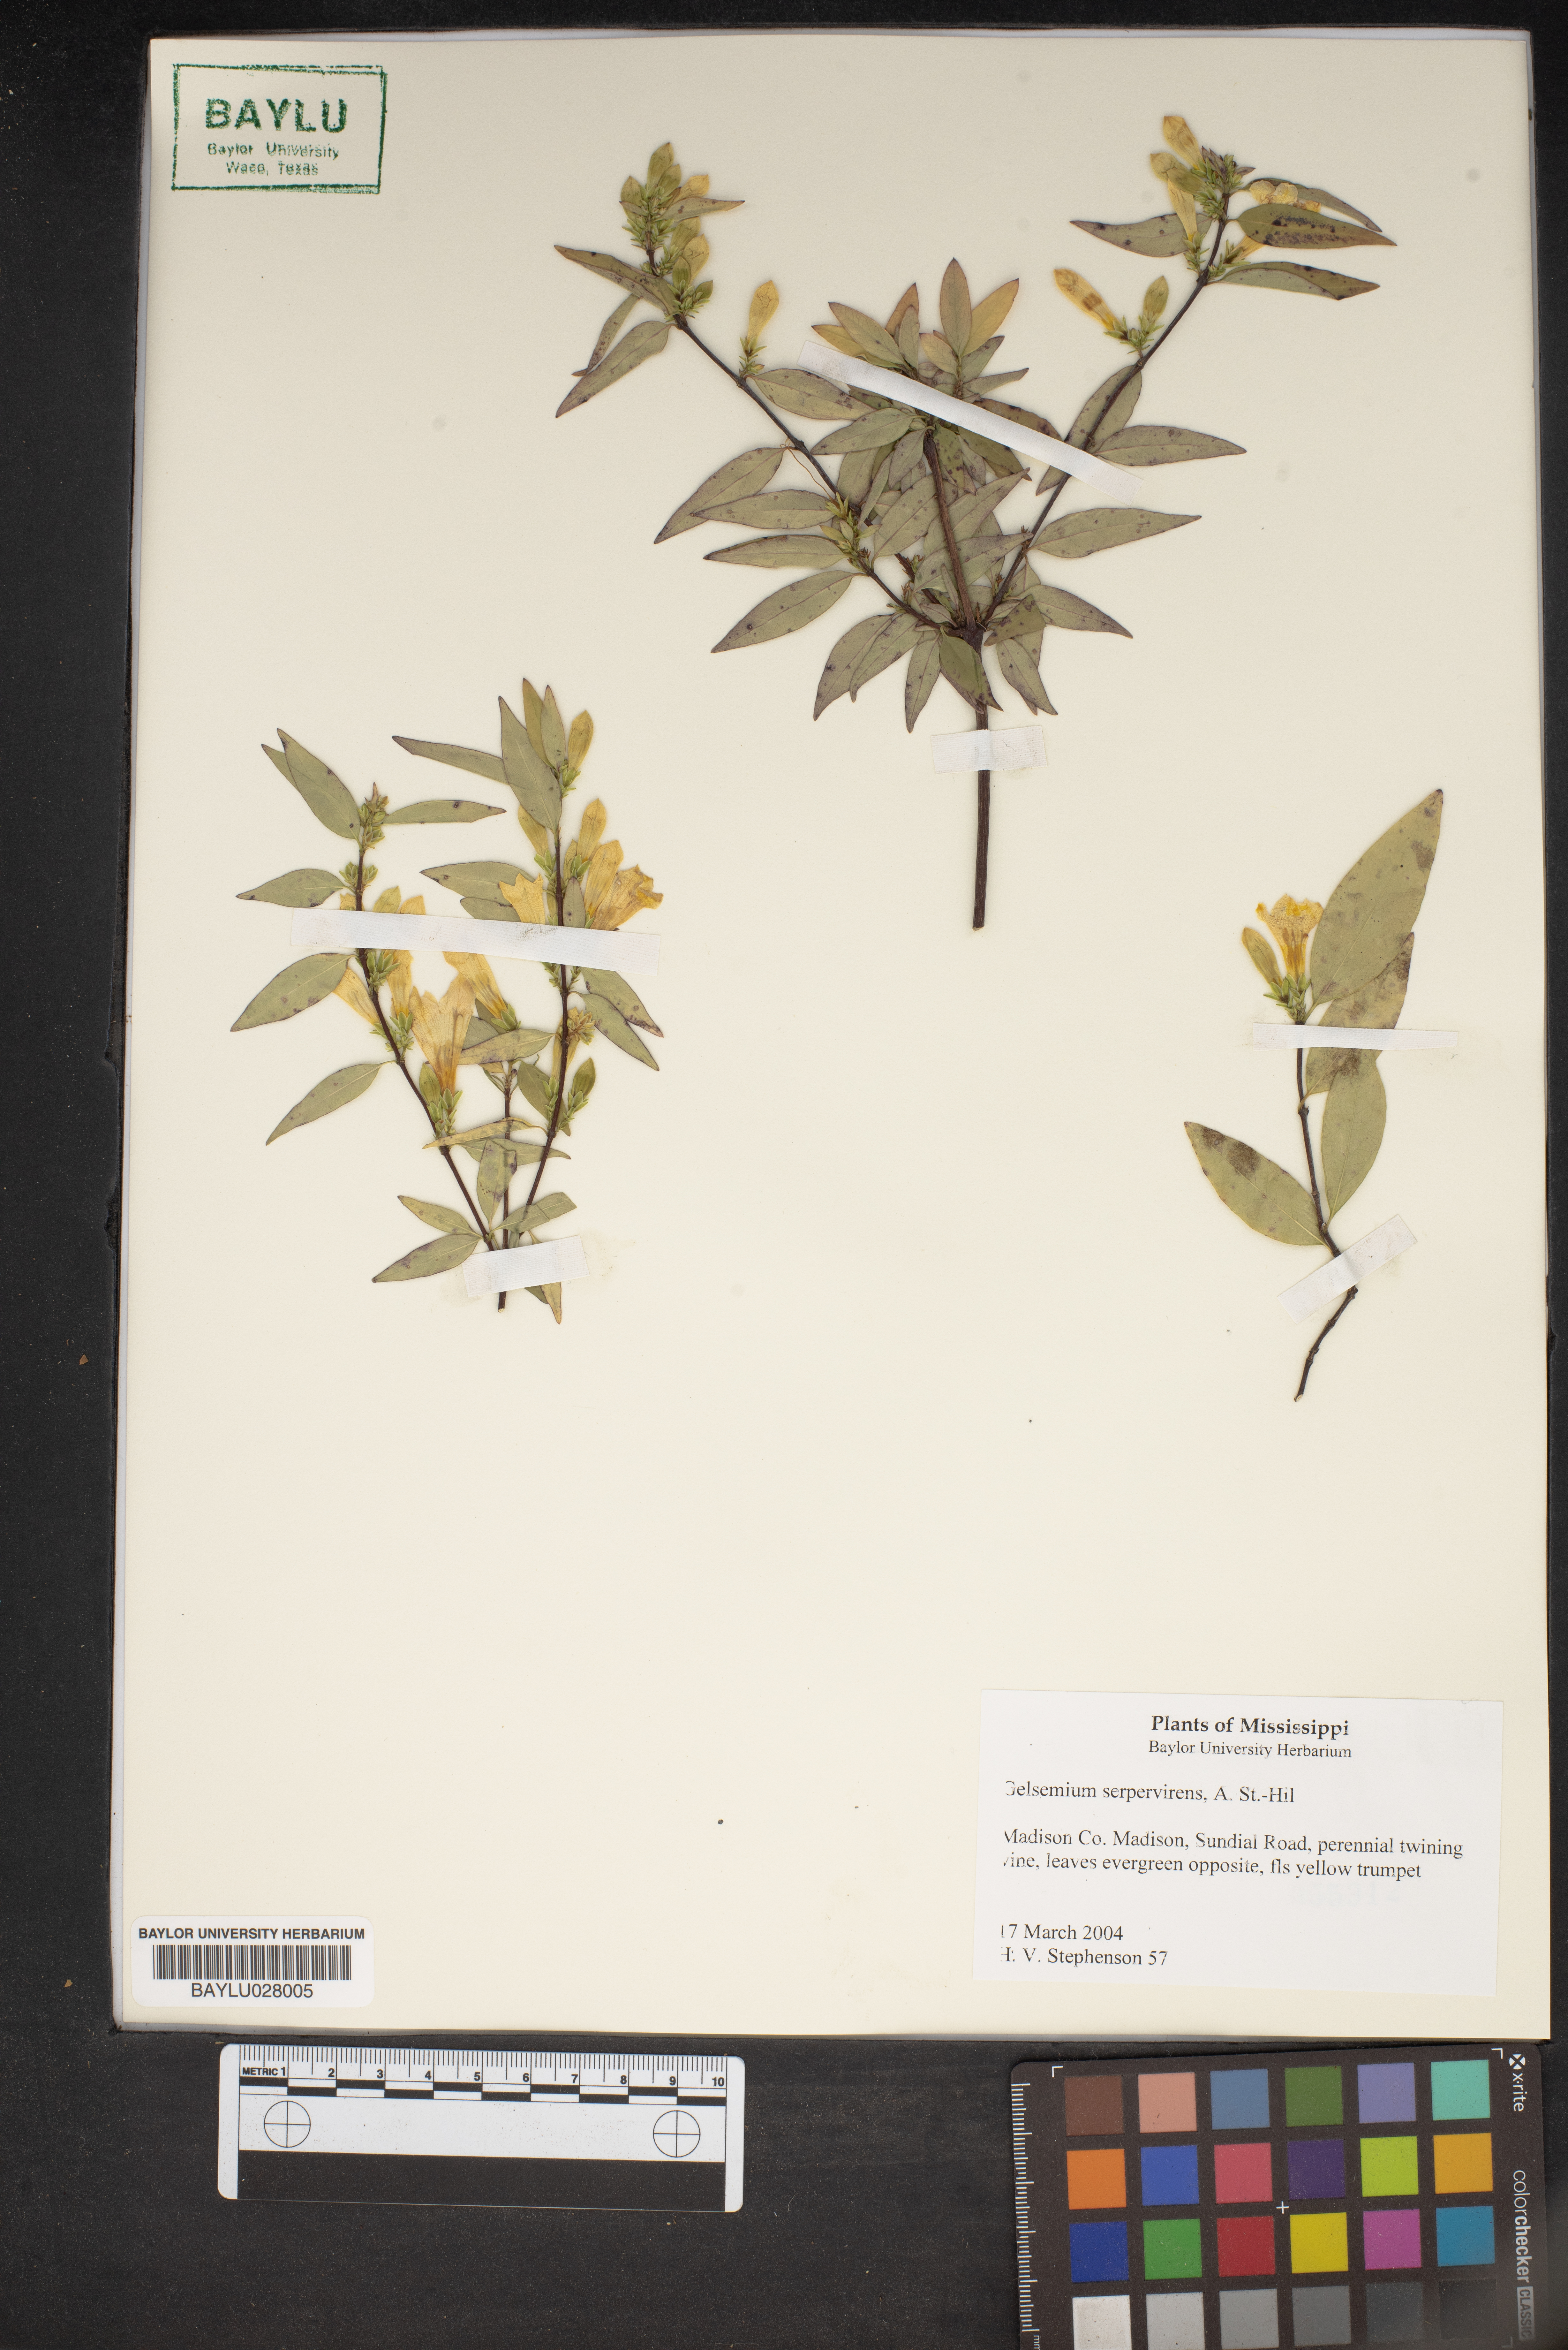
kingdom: Plantae
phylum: Tracheophyta
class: Magnoliopsida
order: Gentianales
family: Gelsemiaceae
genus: Gelsemium
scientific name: Gelsemium sempervirens
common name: Carolina-jasmine
